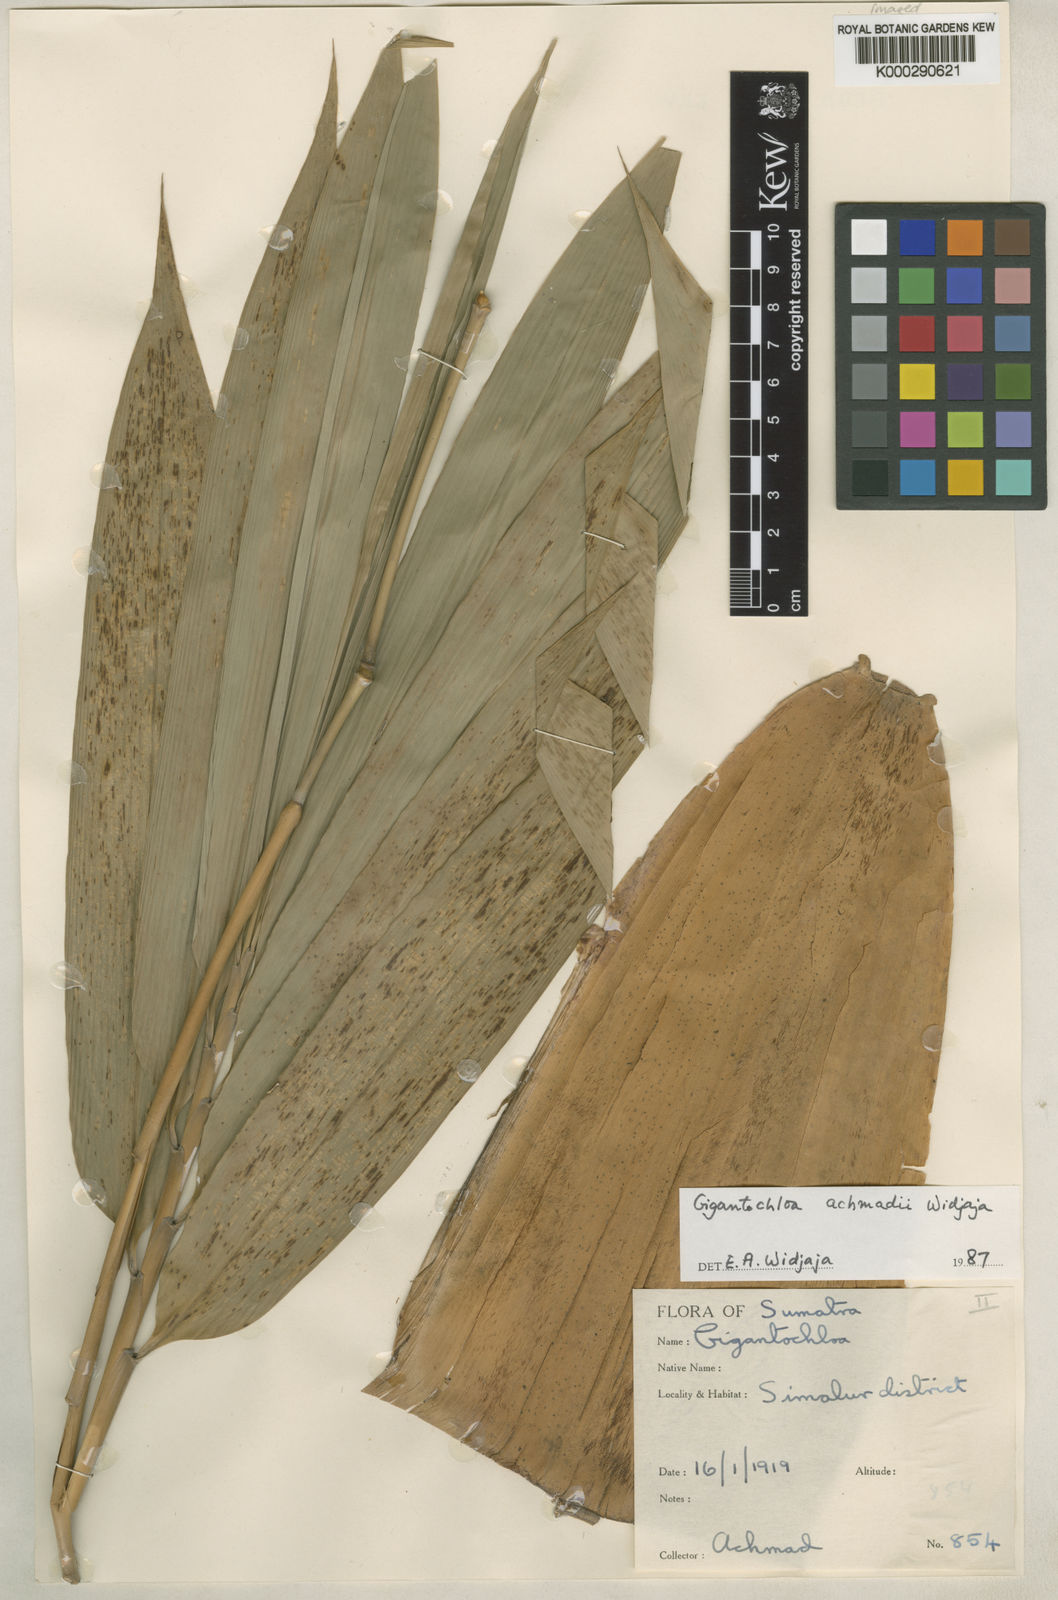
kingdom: Plantae
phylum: Tracheophyta
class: Liliopsida
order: Poales
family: Poaceae
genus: Gigantochloa
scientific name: Gigantochloa achmadii
